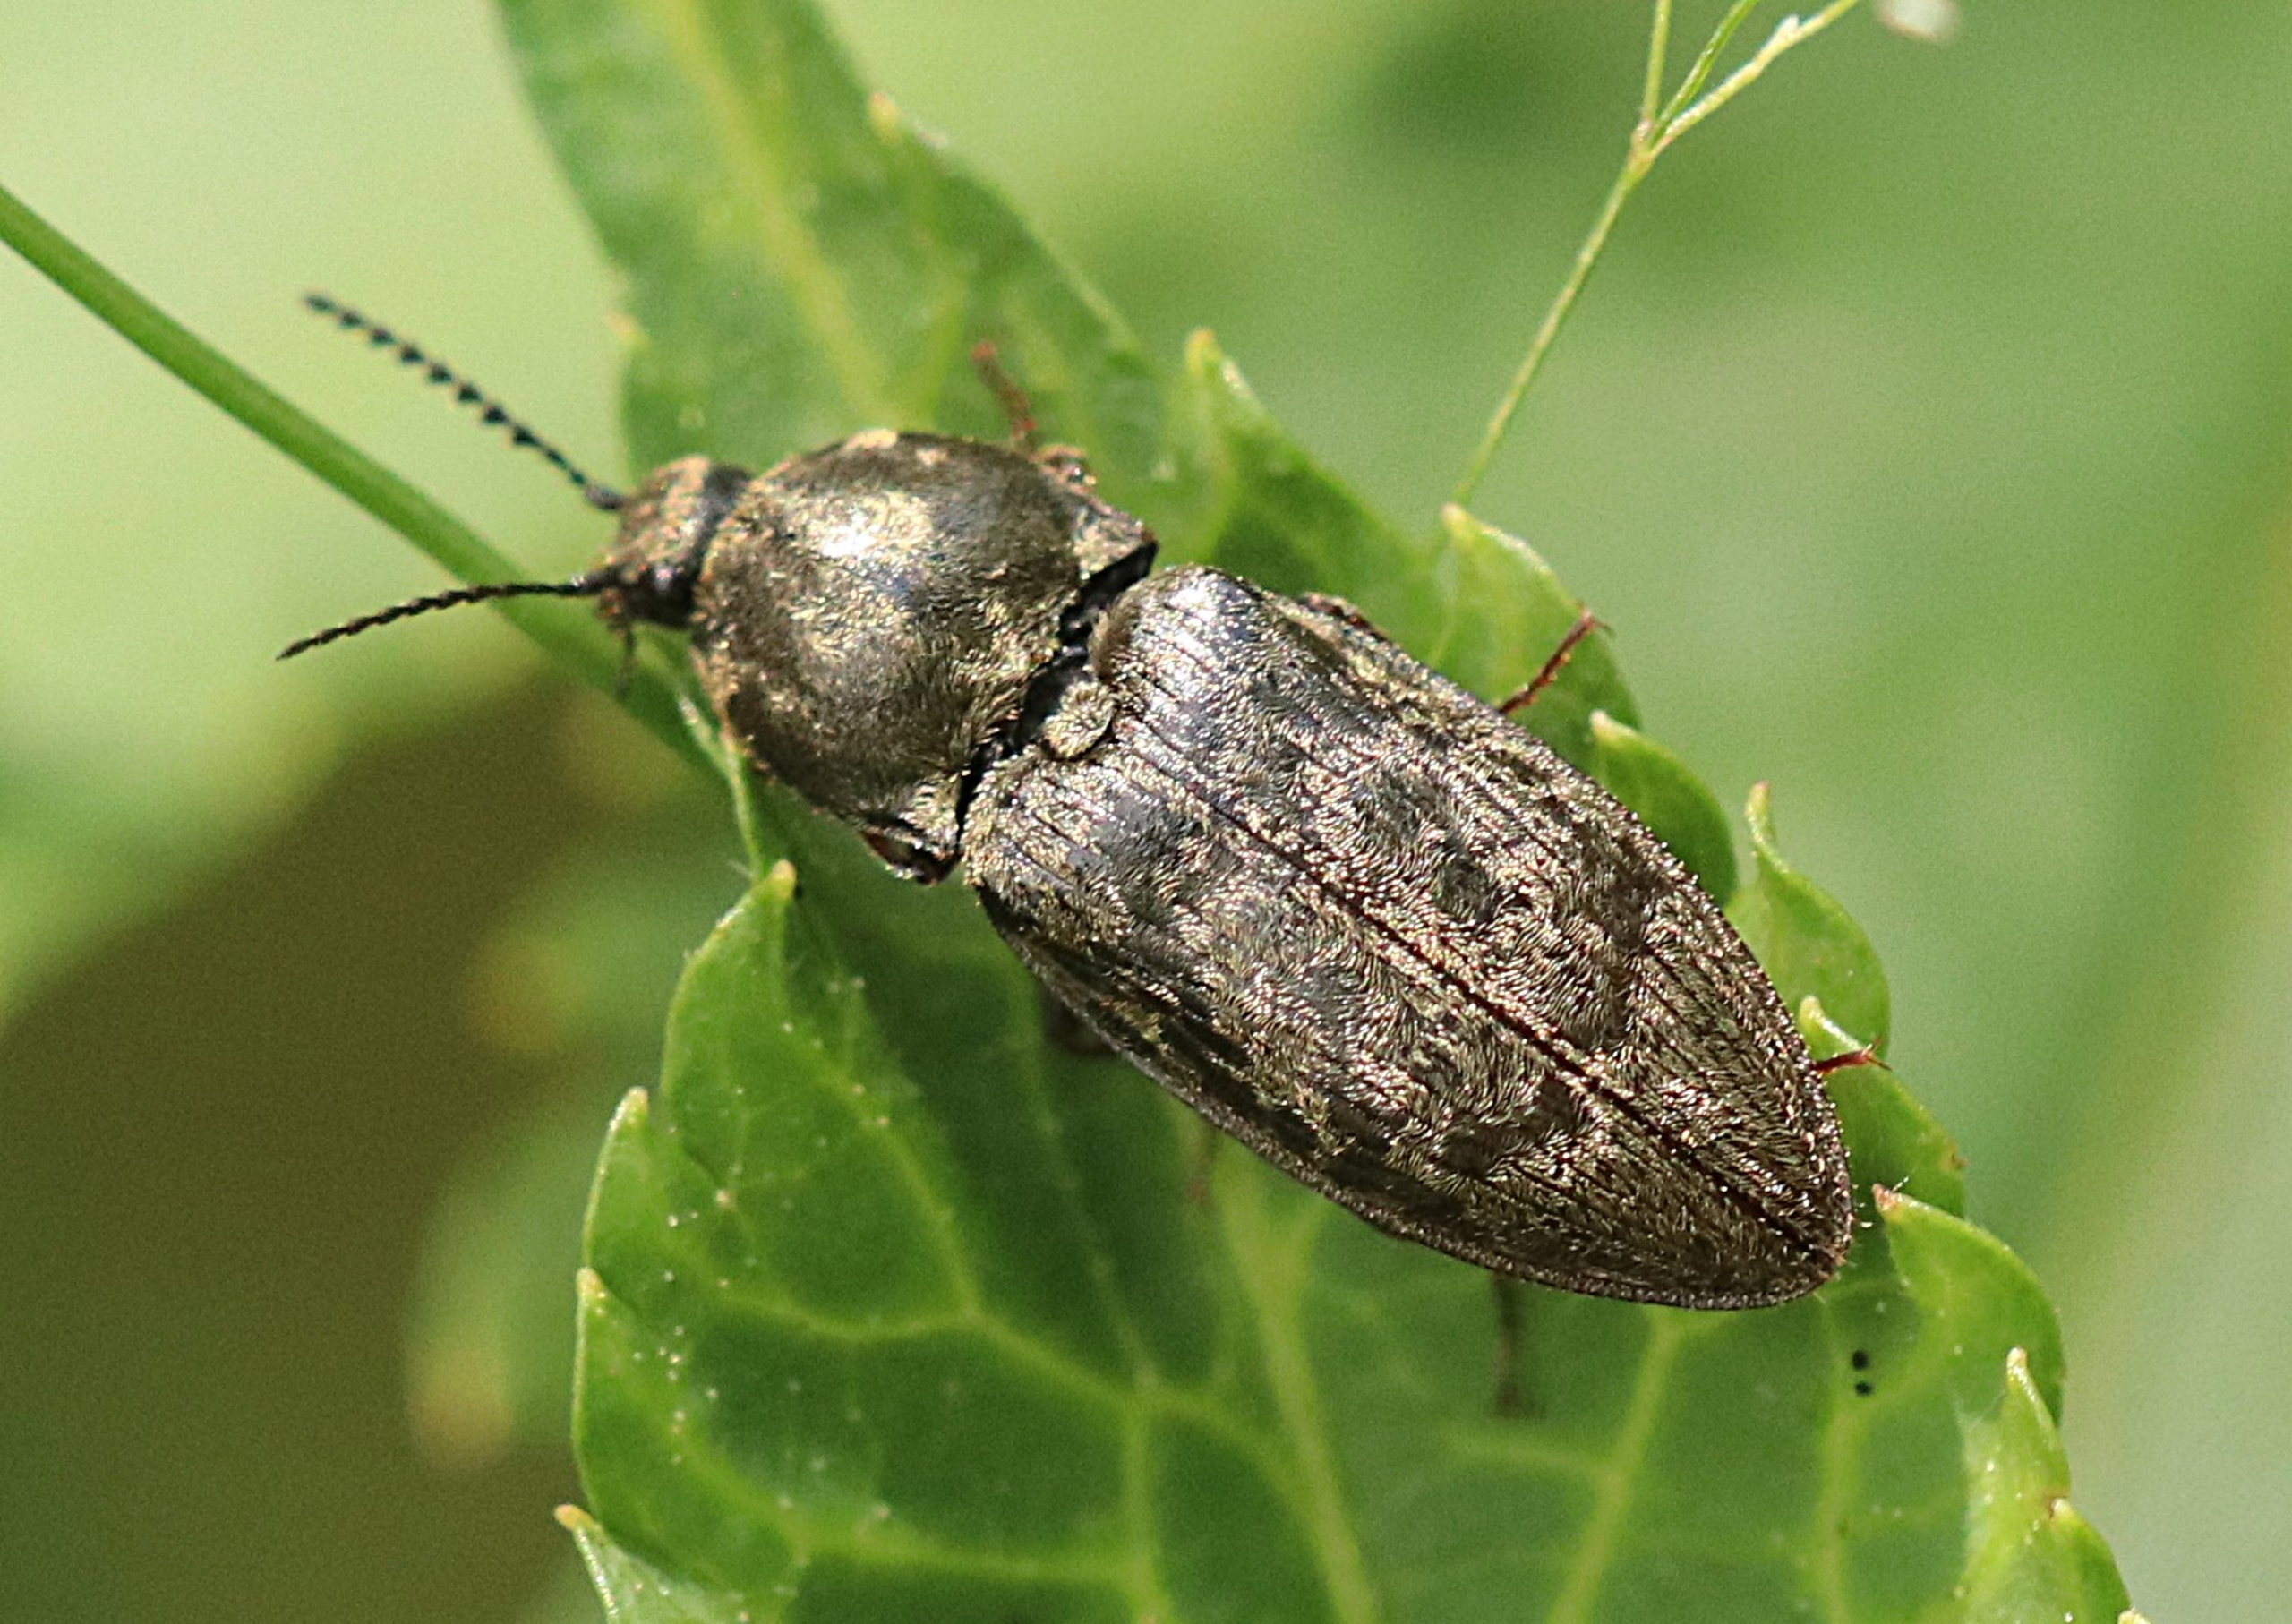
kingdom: Animalia
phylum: Arthropoda
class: Insecta
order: Coleoptera
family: Elateridae
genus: Prosternon
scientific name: Prosternon tessellatum
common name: Silkeglinsende jordsmælder
